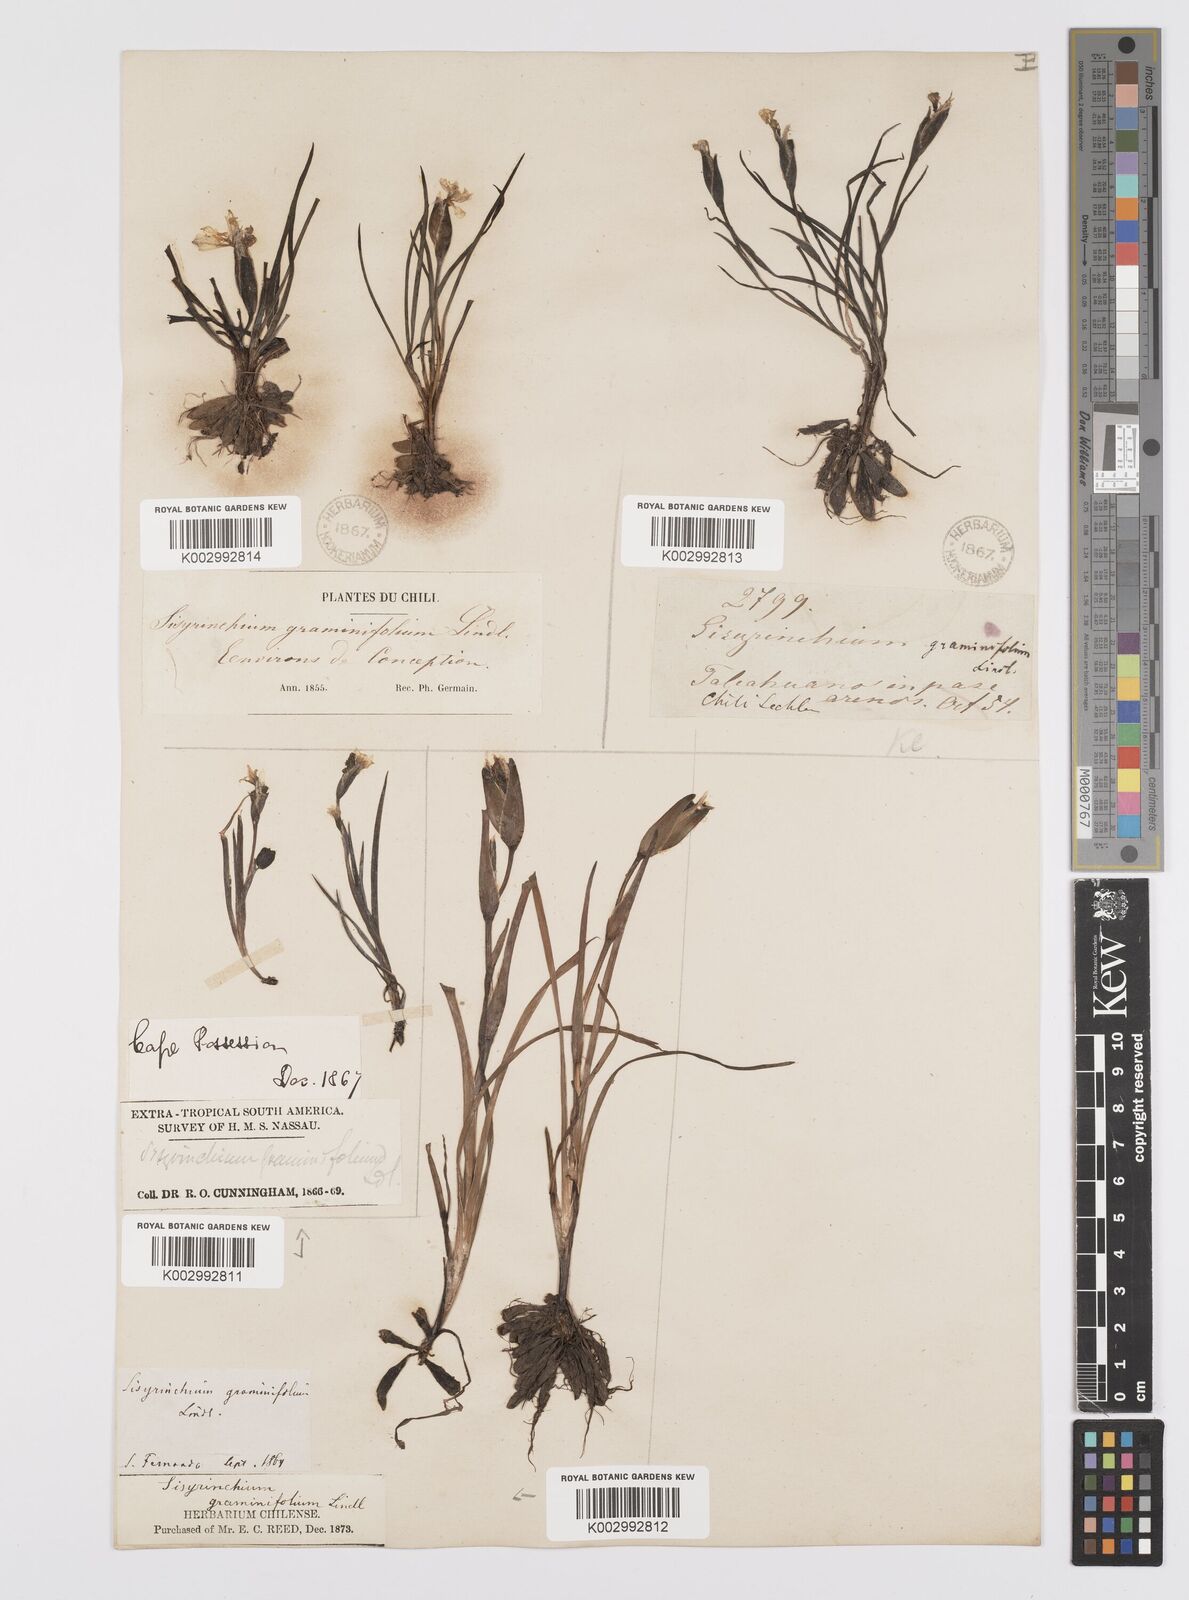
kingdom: Plantae
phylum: Tracheophyta
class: Liliopsida
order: Asparagales
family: Iridaceae
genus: Sisyrinchium
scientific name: Sisyrinchium graminifolium
